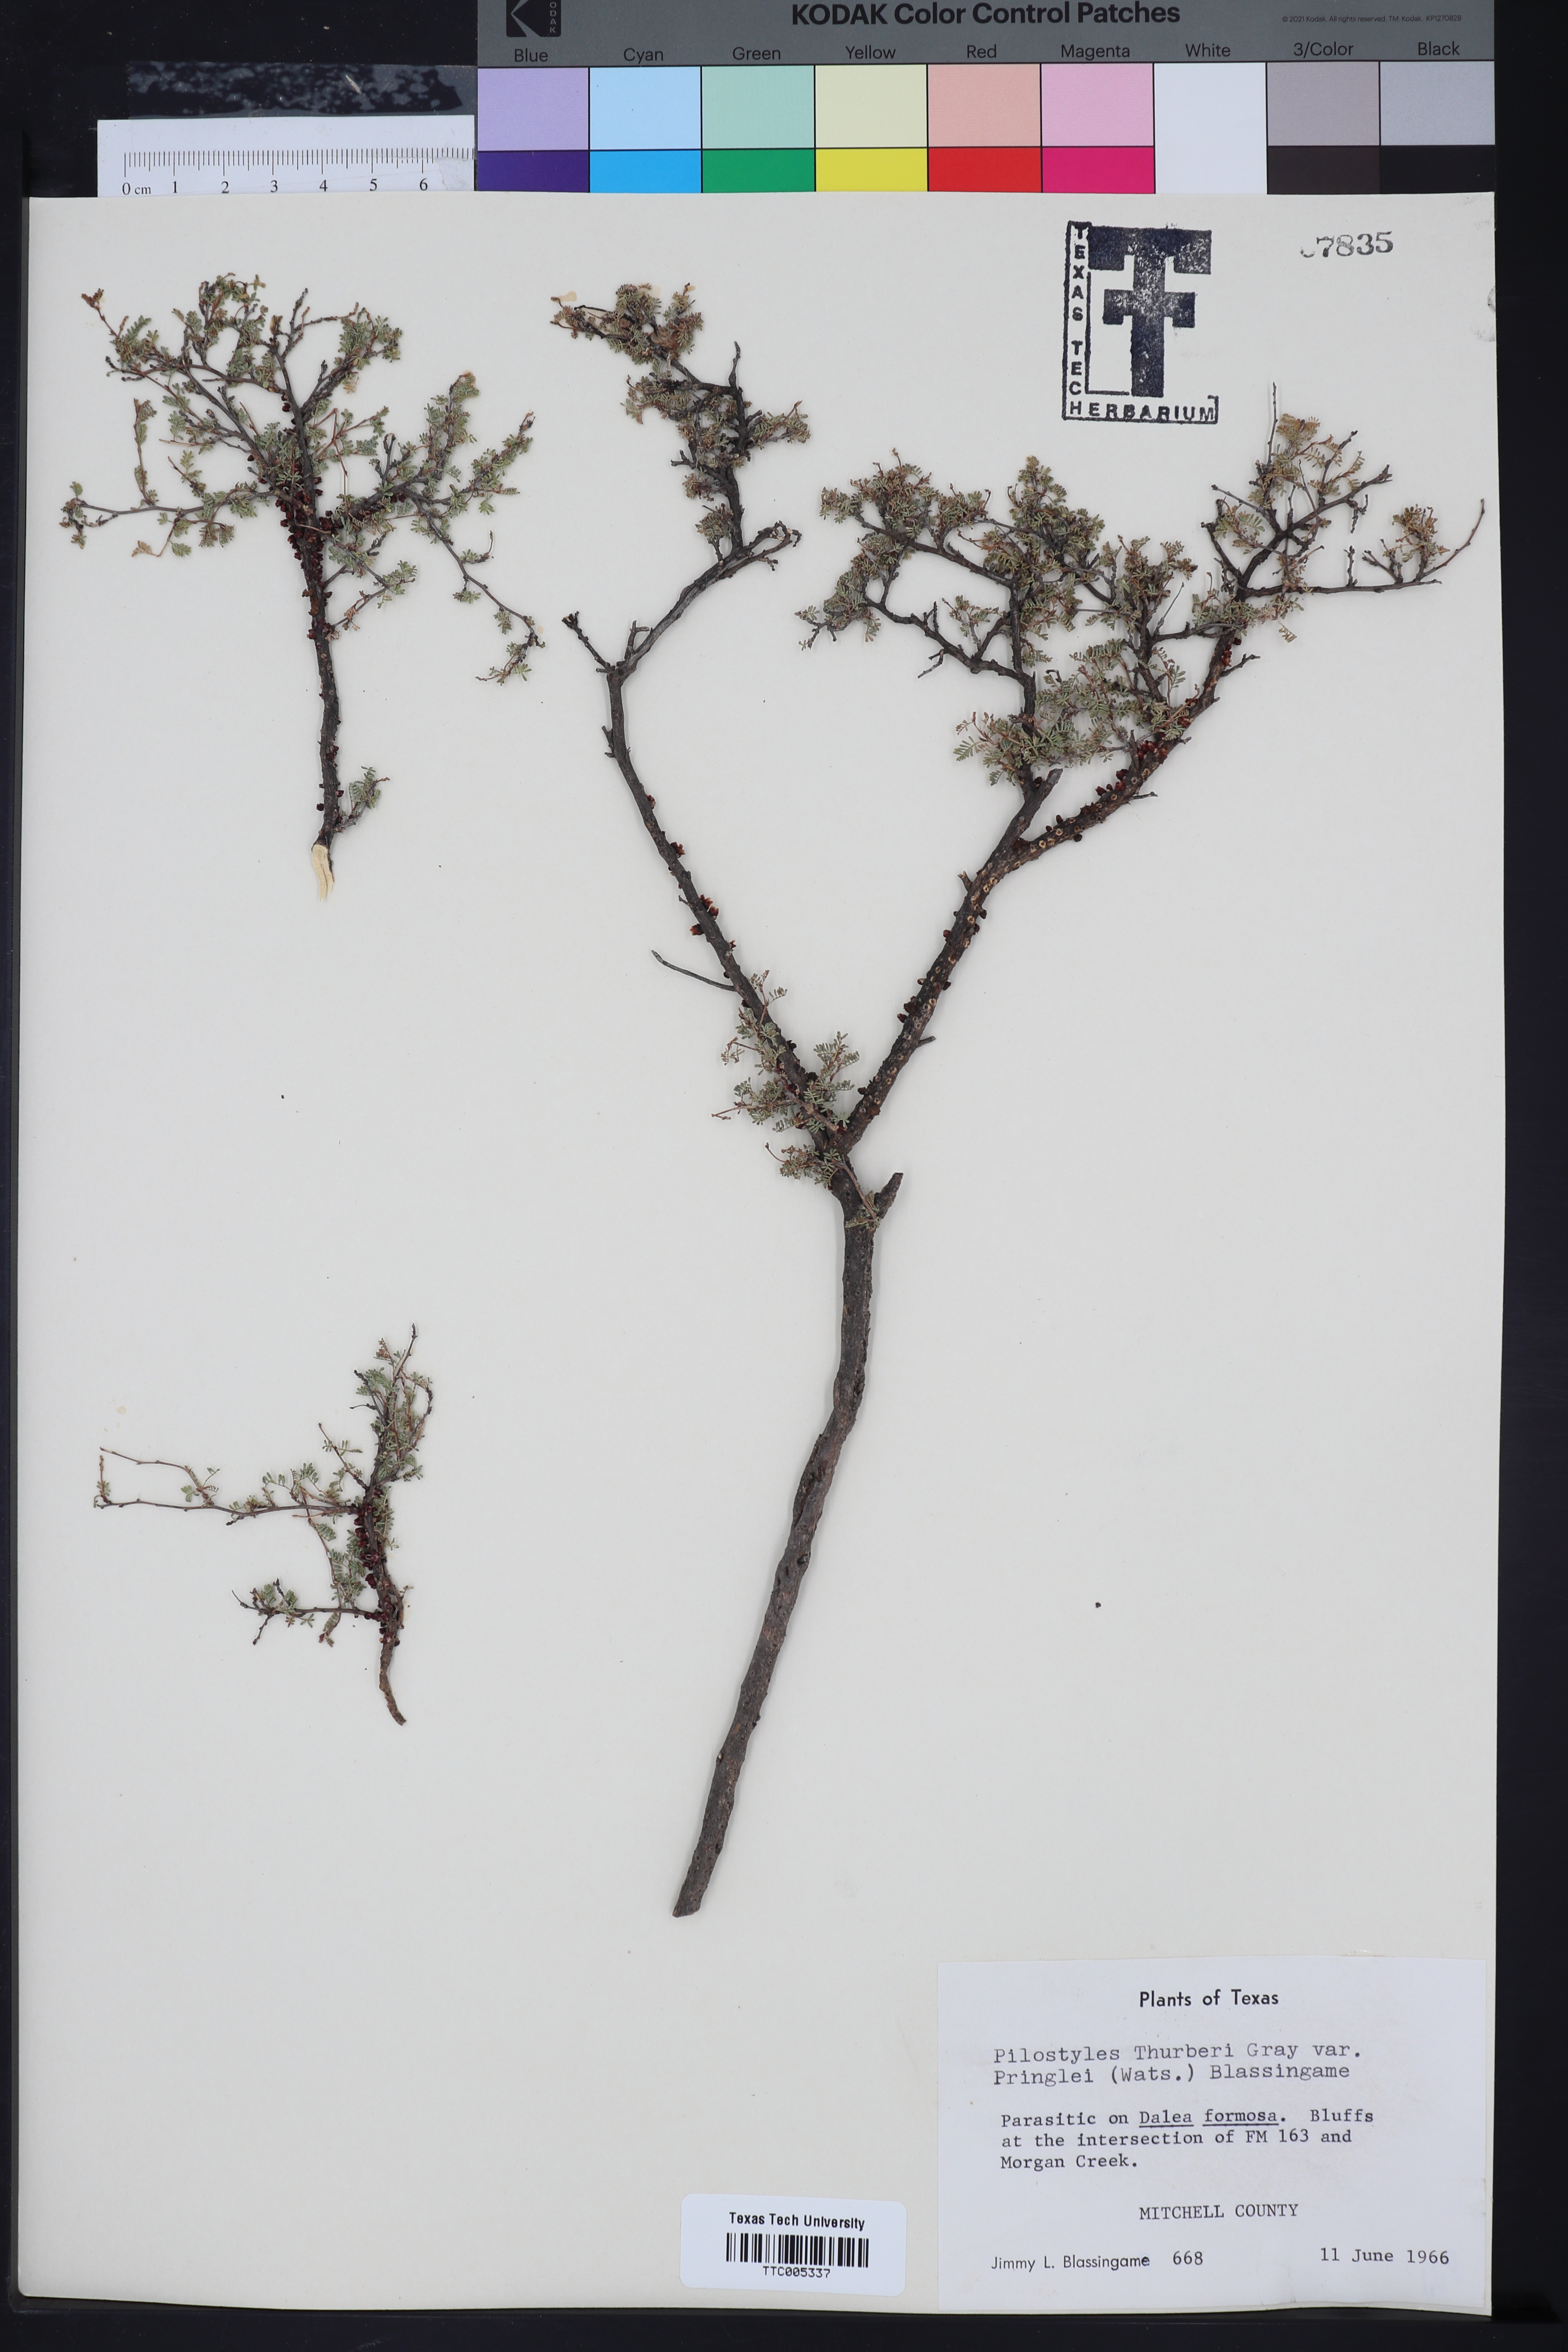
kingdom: Plantae
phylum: Tracheophyta
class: Magnoliopsida
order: Cucurbitales
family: Apodanthaceae
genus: Pilostyles
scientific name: Pilostyles thurberi
